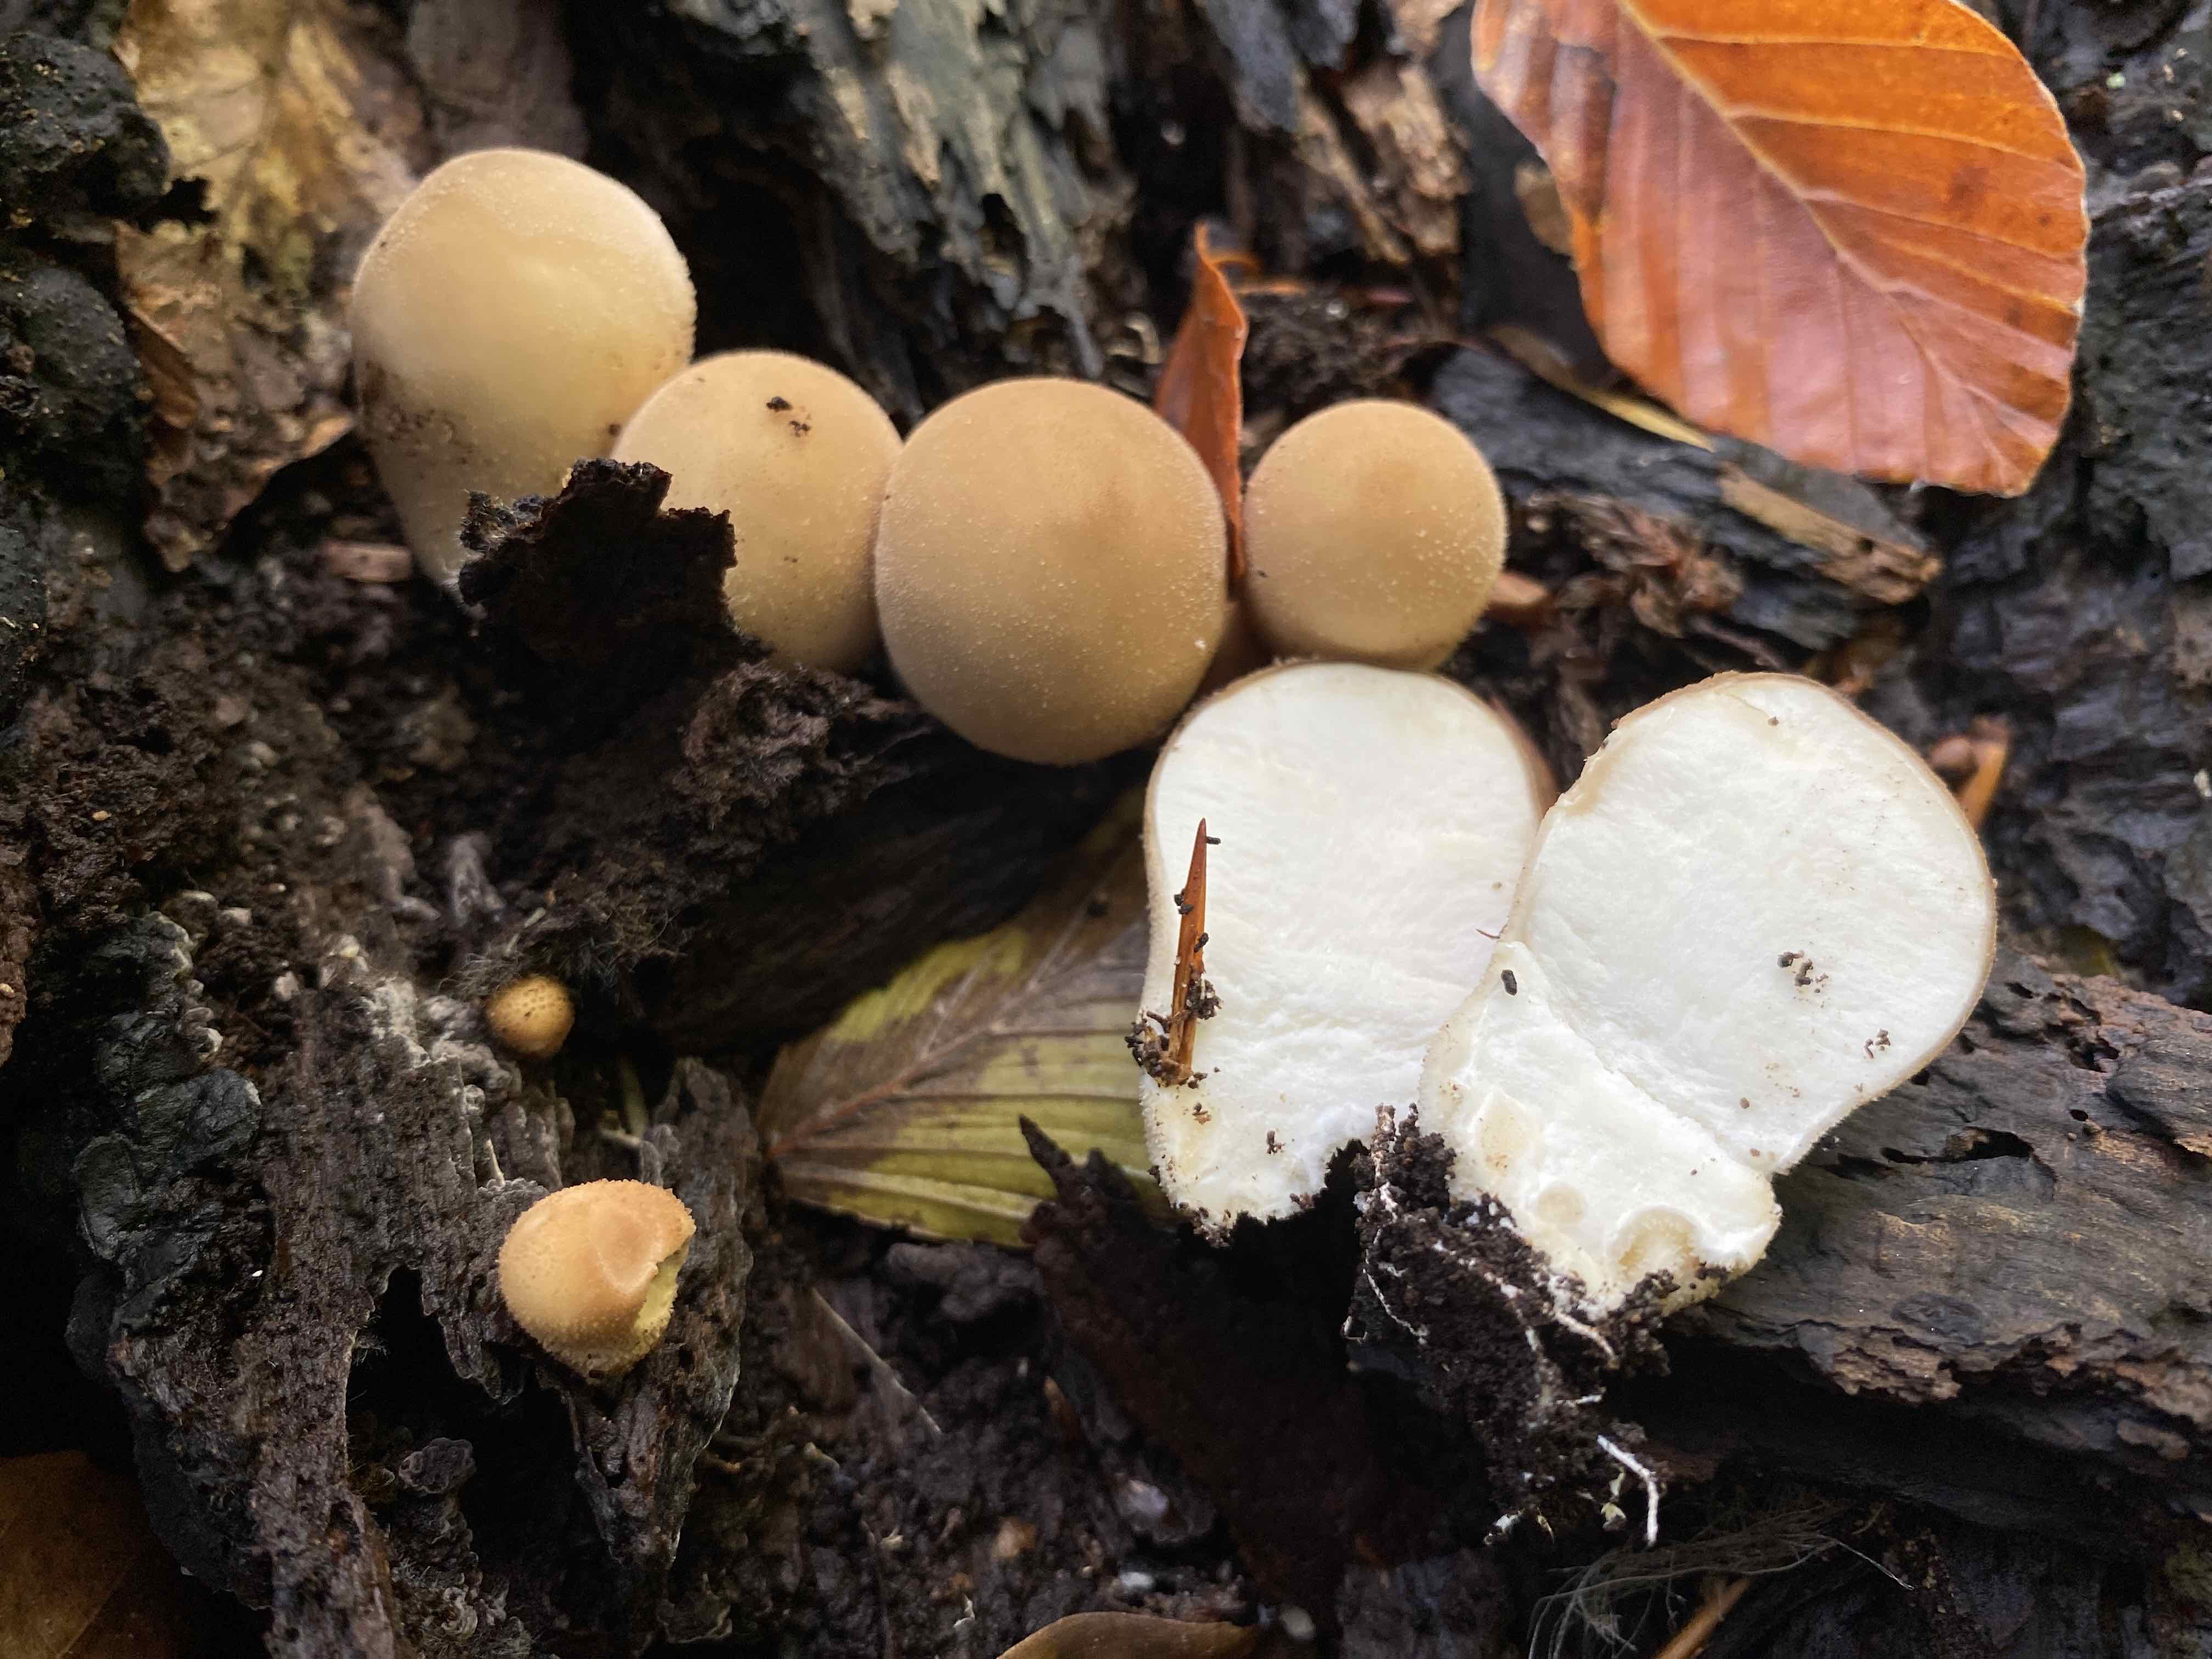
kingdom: Fungi
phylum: Basidiomycota
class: Agaricomycetes
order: Agaricales
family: Lycoperdaceae
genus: Apioperdon
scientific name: Apioperdon pyriforme
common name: pære-støvbold
